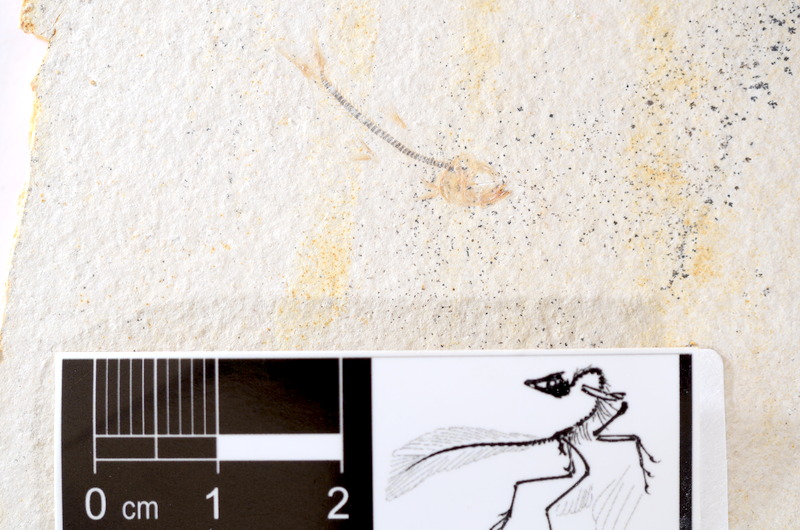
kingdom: Animalia
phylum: Chordata
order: Salmoniformes
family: Orthogonikleithridae
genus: Orthogonikleithrus
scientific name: Orthogonikleithrus hoelli
